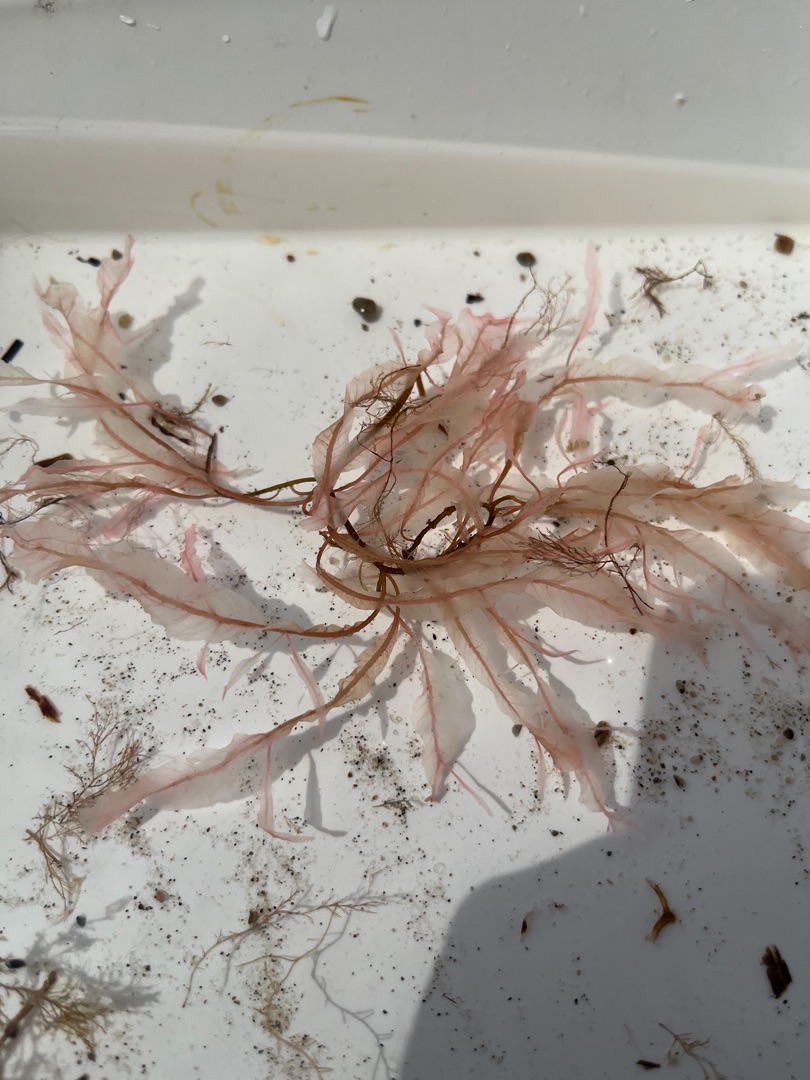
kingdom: Plantae
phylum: Rhodophyta
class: Florideophyceae
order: Ceramiales
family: Delesseriaceae
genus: Delesseria
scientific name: Delesseria sanguinea
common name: Blodrød ribbeblad
